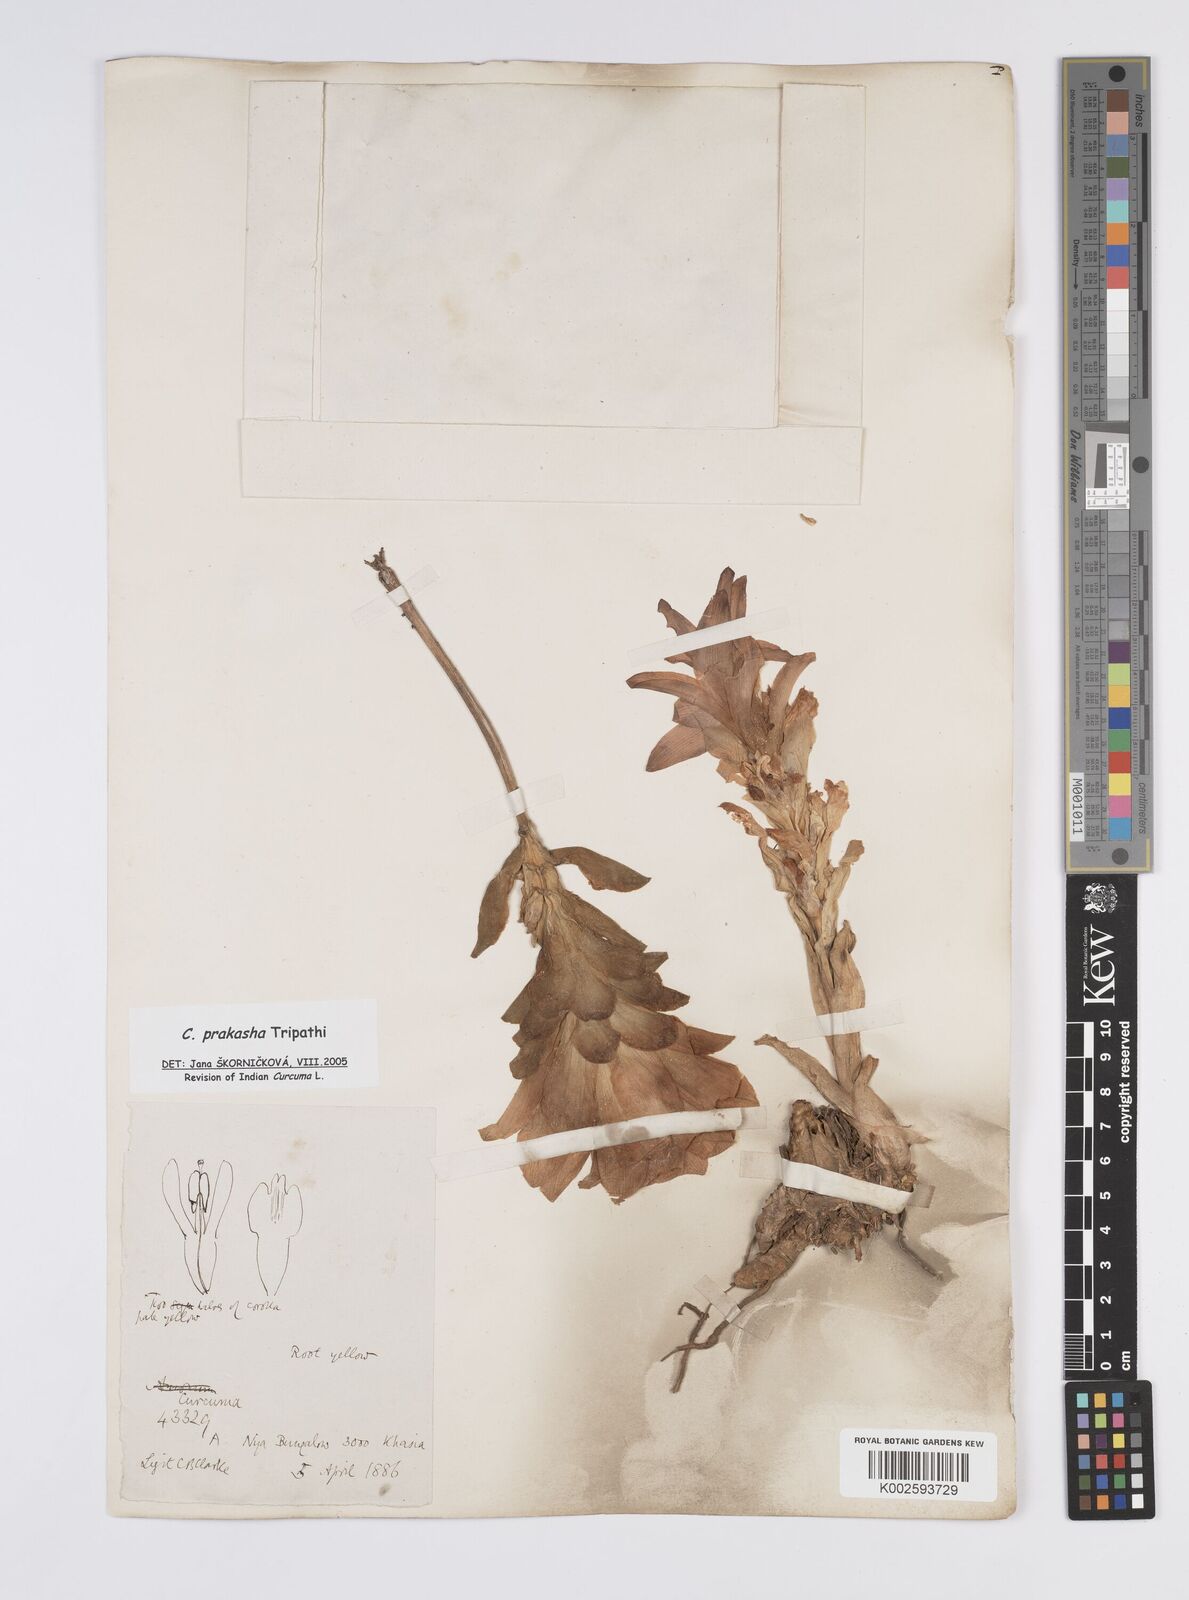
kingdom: Plantae
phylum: Tracheophyta
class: Liliopsida
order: Zingiberales
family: Zingiberaceae
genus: Curcuma
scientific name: Curcuma prakasha
